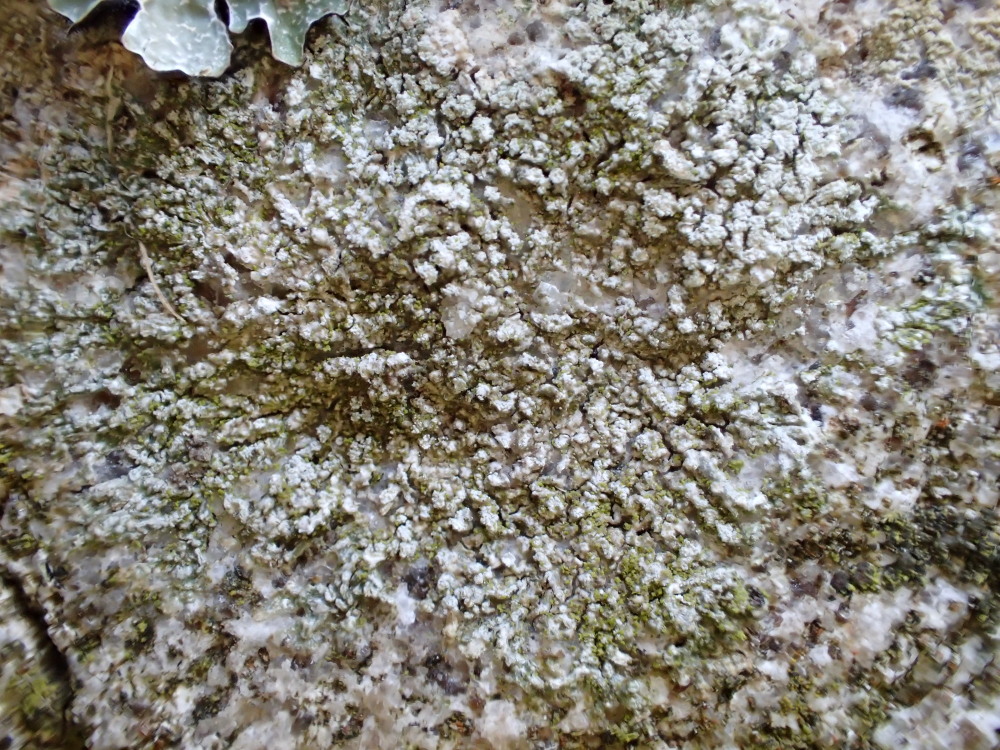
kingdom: Fungi
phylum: Ascomycota
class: Lecanoromycetes
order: Pertusariales
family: Pertusariaceae
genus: Lepra
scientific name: Lepra albescens
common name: hvidmelet prikvortelav
